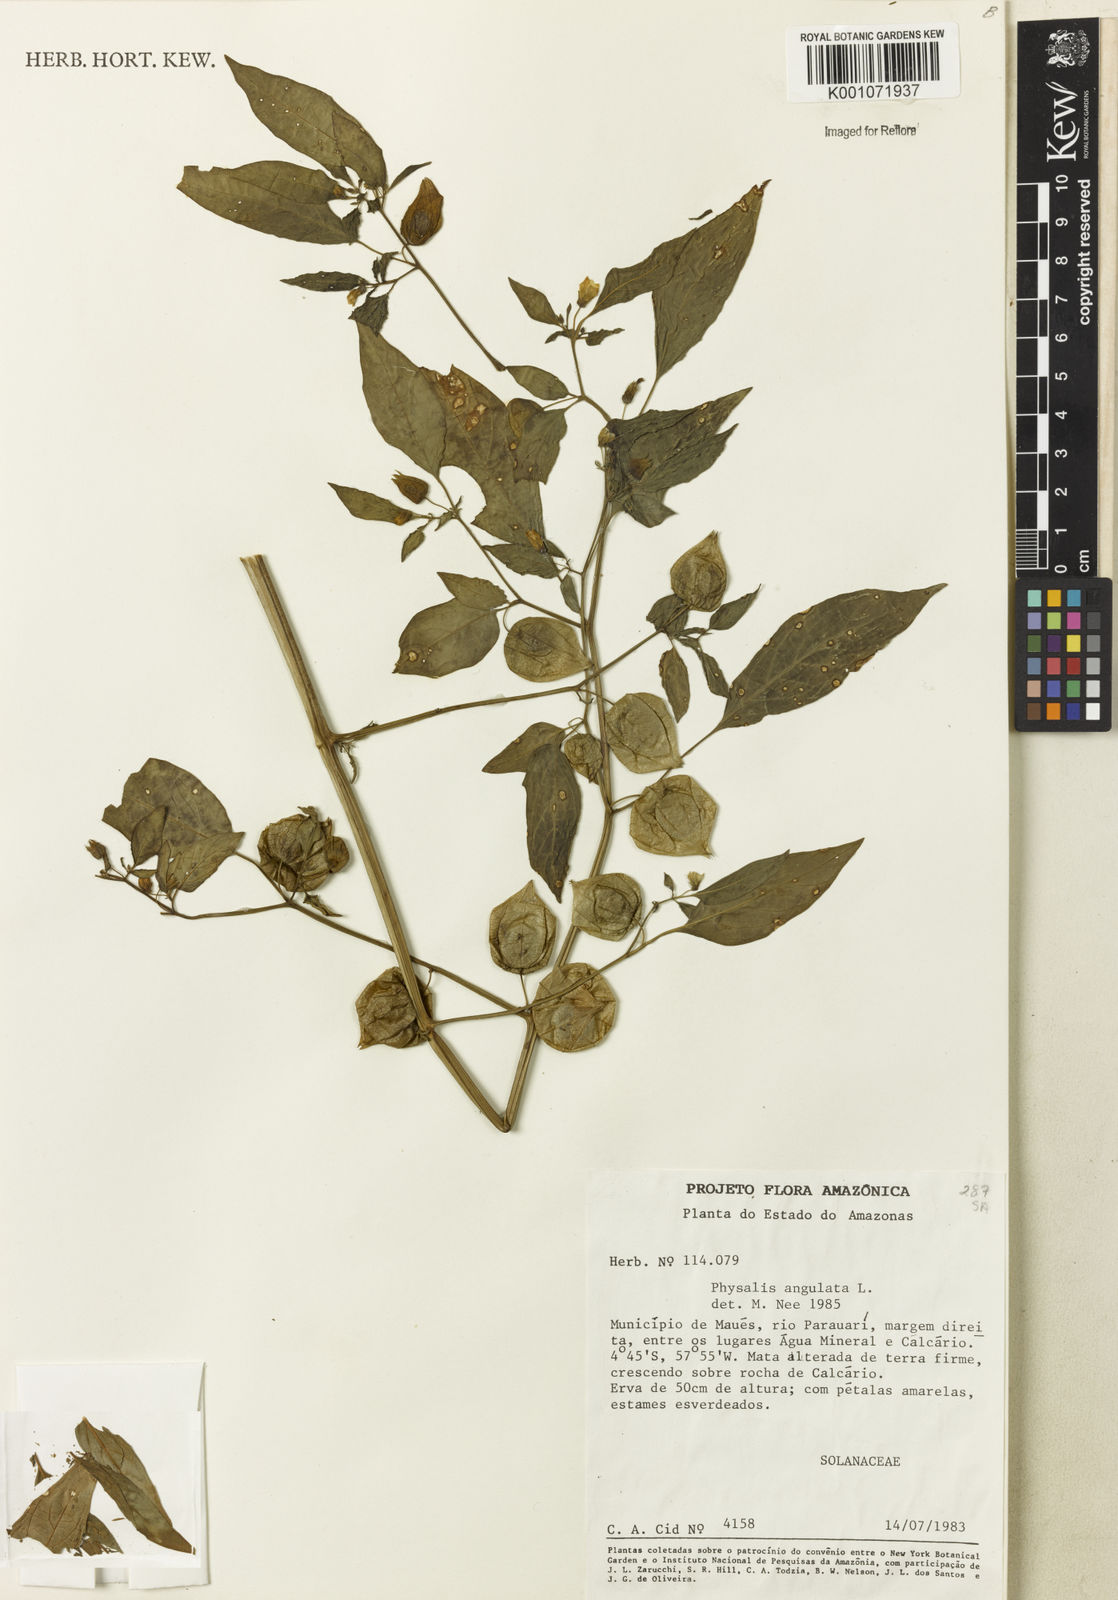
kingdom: Plantae
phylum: Tracheophyta
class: Magnoliopsida
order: Solanales
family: Solanaceae
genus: Physalis
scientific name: Physalis angulata
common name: Angular winter-cherry
